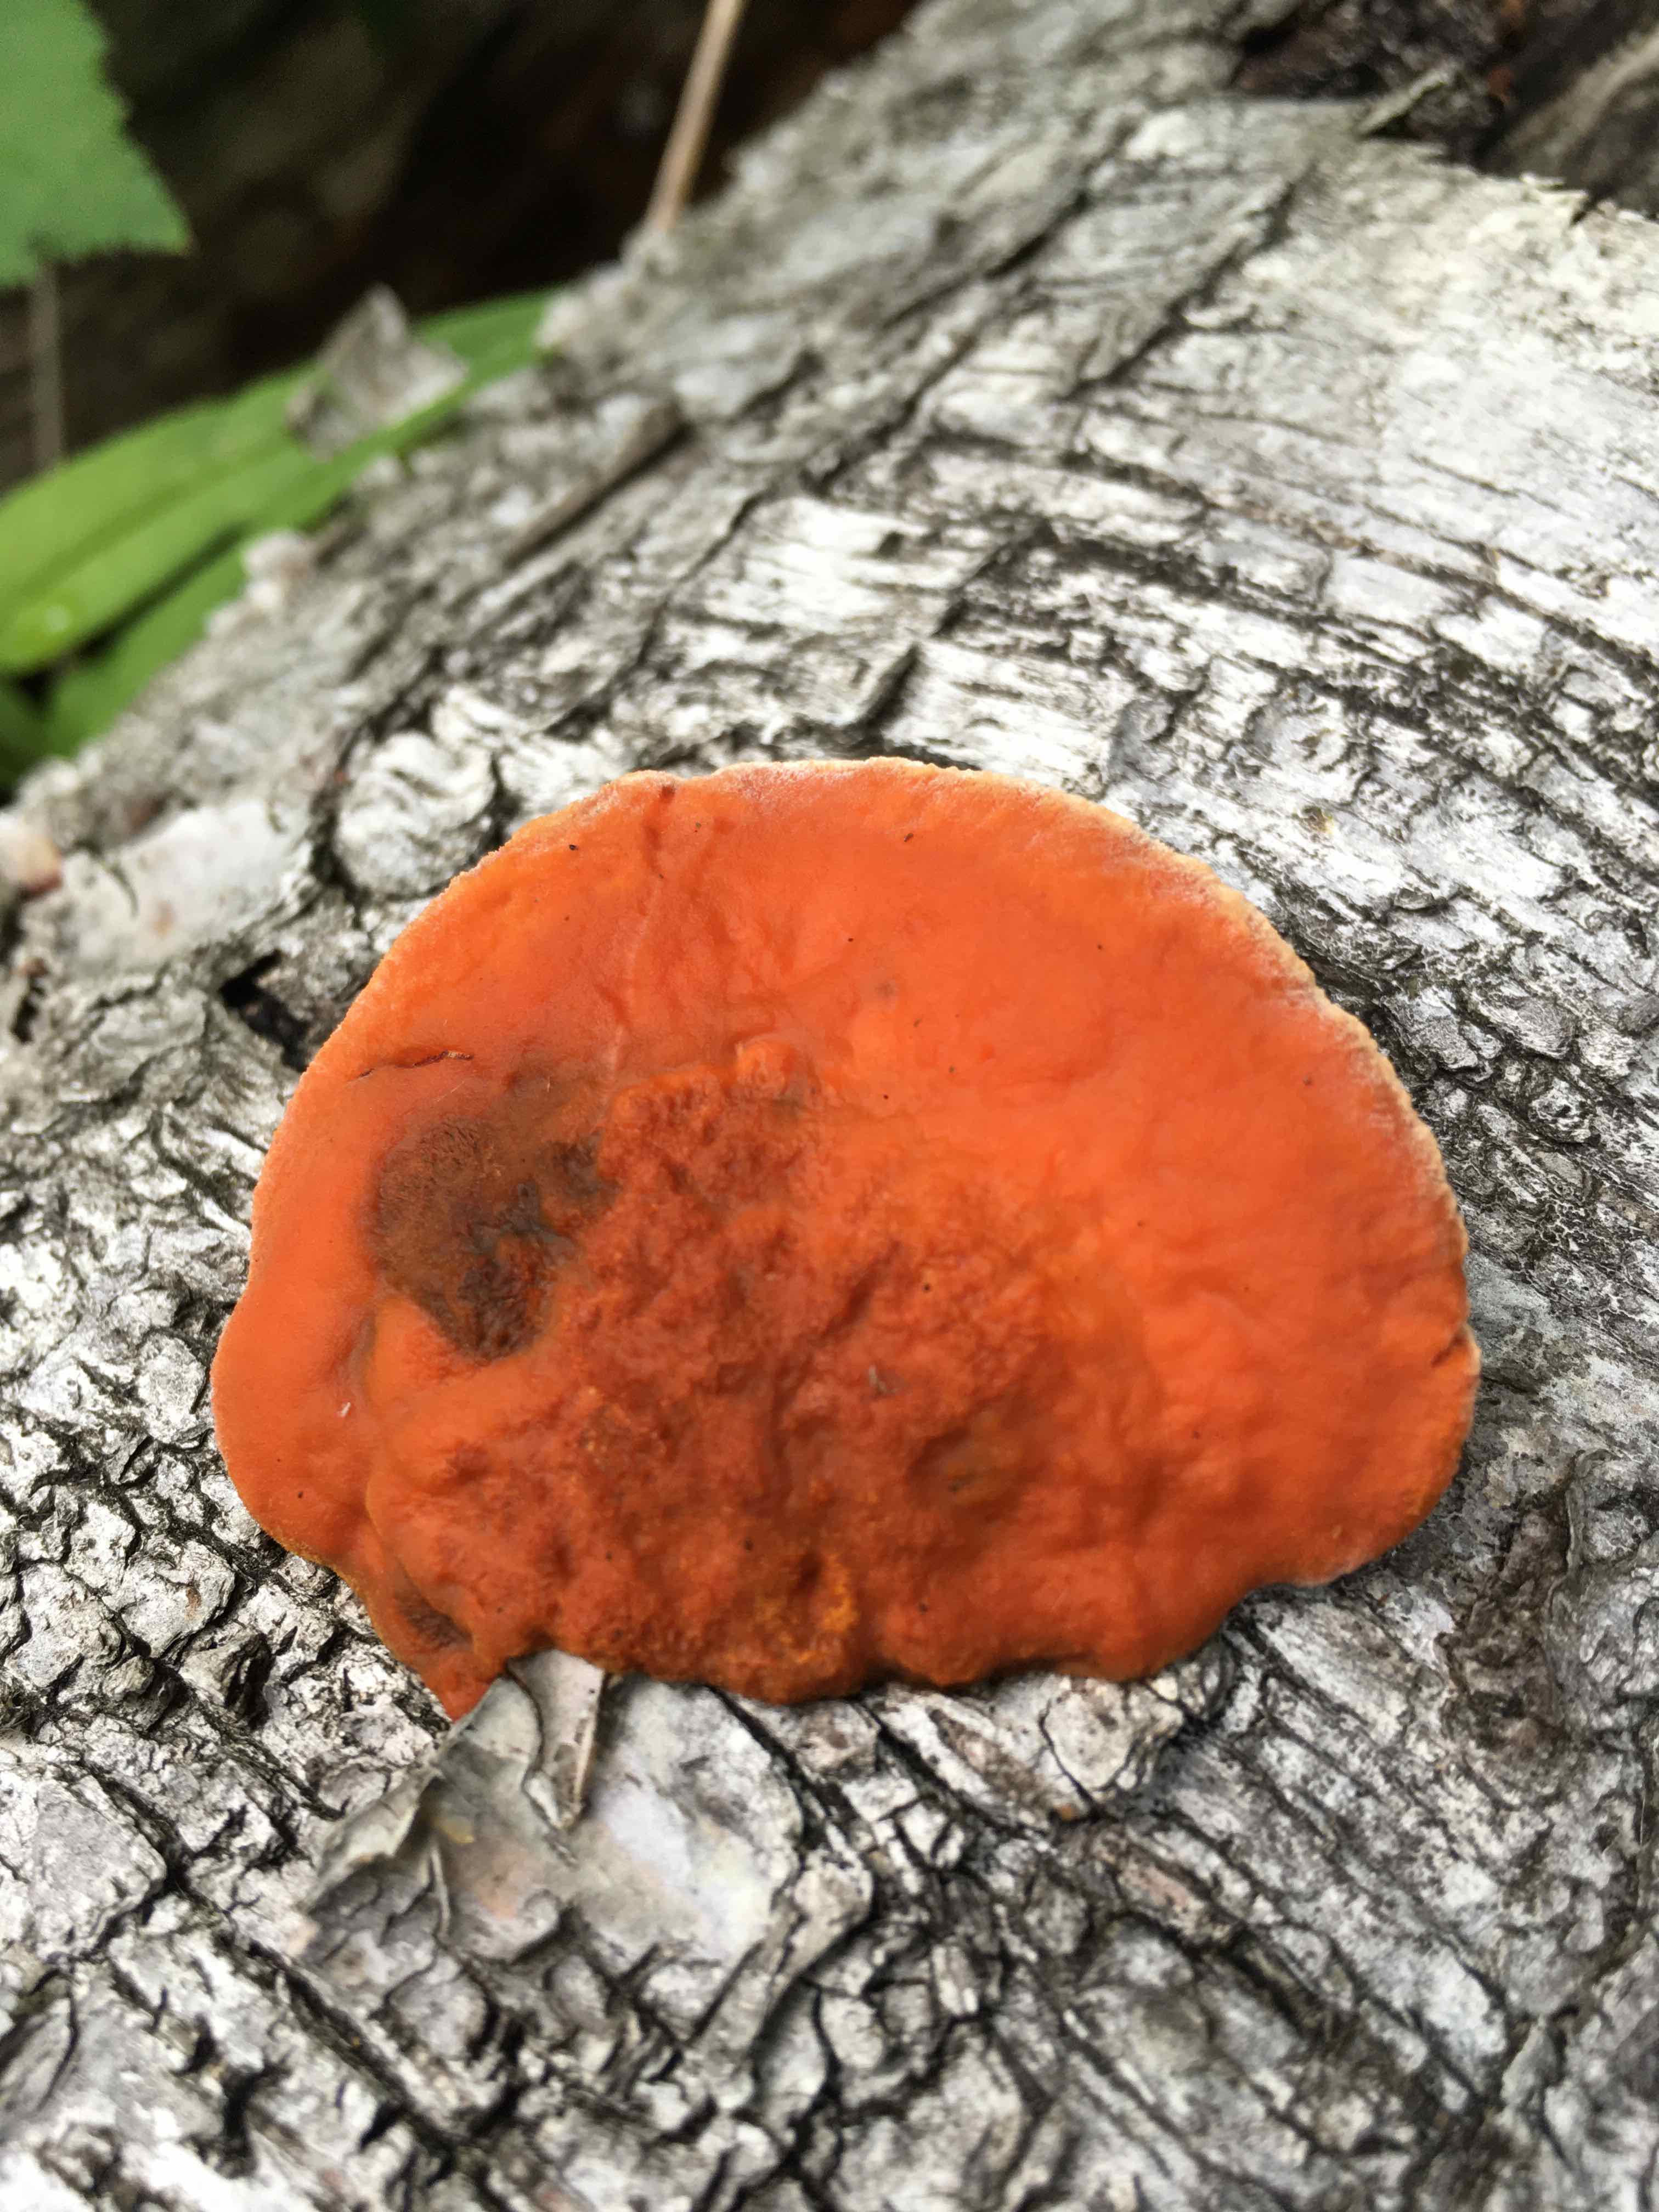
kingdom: Fungi
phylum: Basidiomycota
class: Agaricomycetes
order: Polyporales
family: Polyporaceae
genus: Trametes
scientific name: Trametes cinnabarina
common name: cinnoberporesvamp
